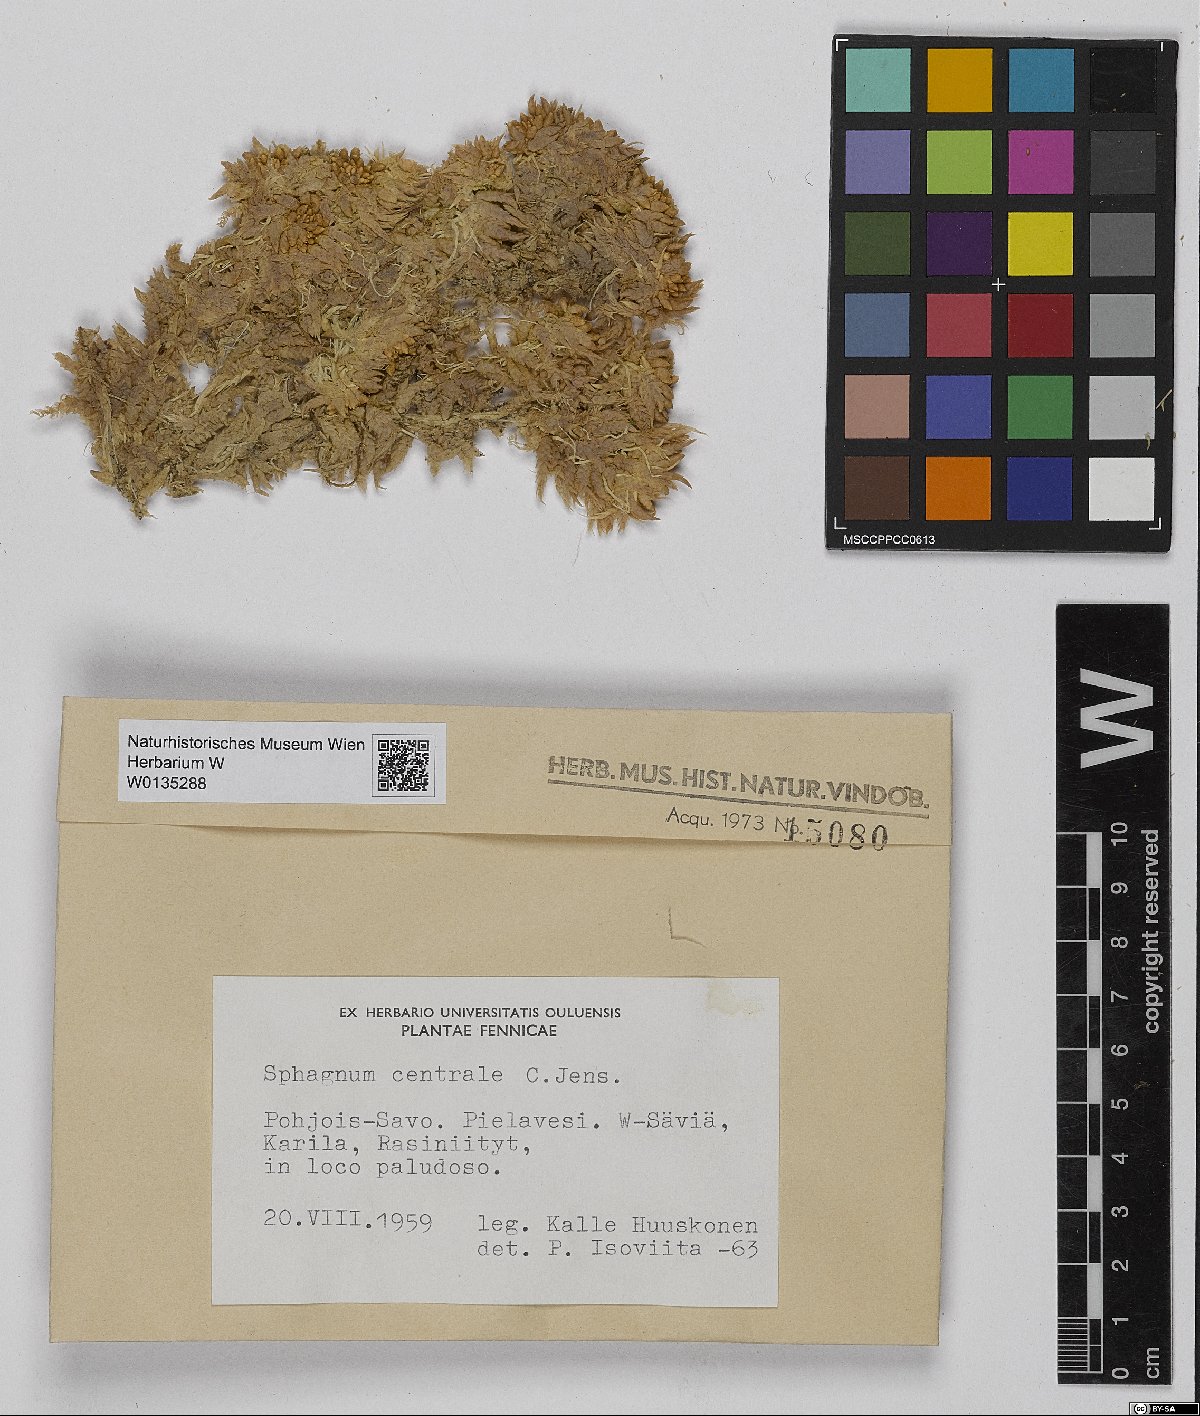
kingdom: Plantae
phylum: Bryophyta
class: Sphagnopsida
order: Sphagnales
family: Sphagnaceae
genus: Sphagnum
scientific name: Sphagnum centrale
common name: Central peat moss
